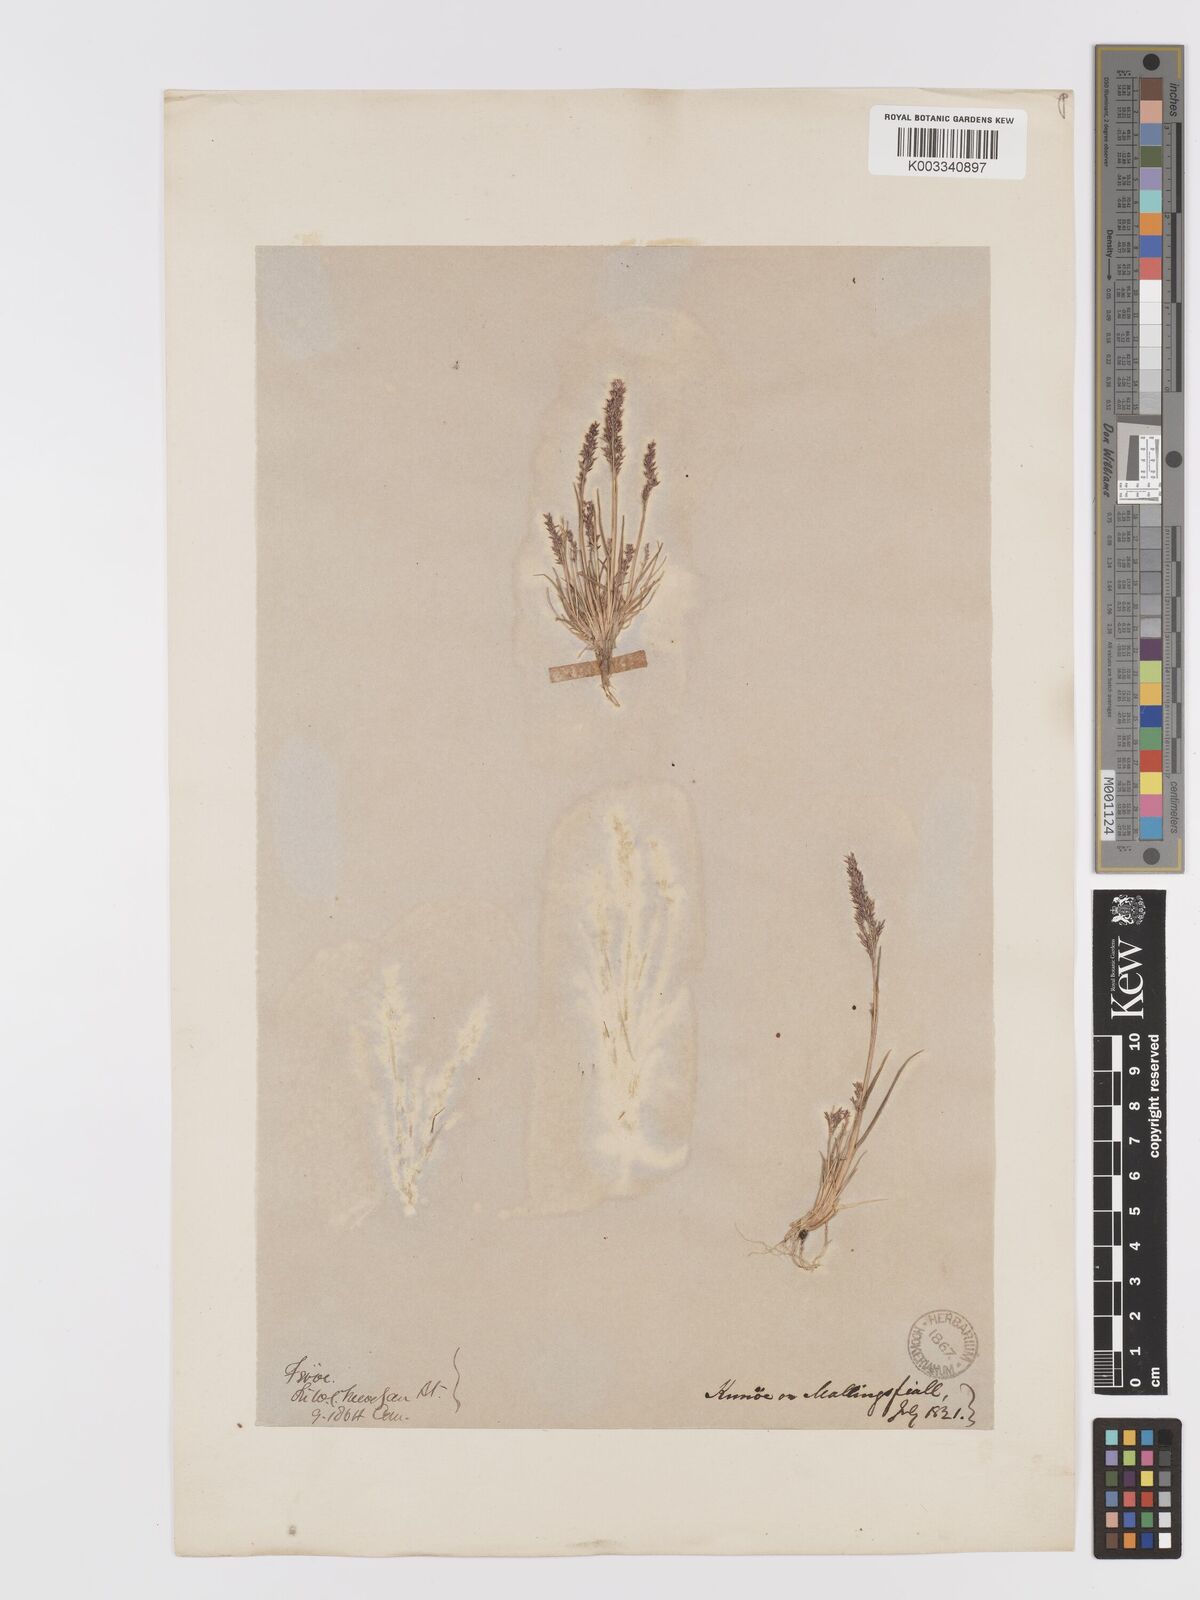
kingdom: Plantae
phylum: Tracheophyta
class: Liliopsida
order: Poales
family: Poaceae
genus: Agrostis
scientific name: Agrostis capillaris
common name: Colonial bentgrass
